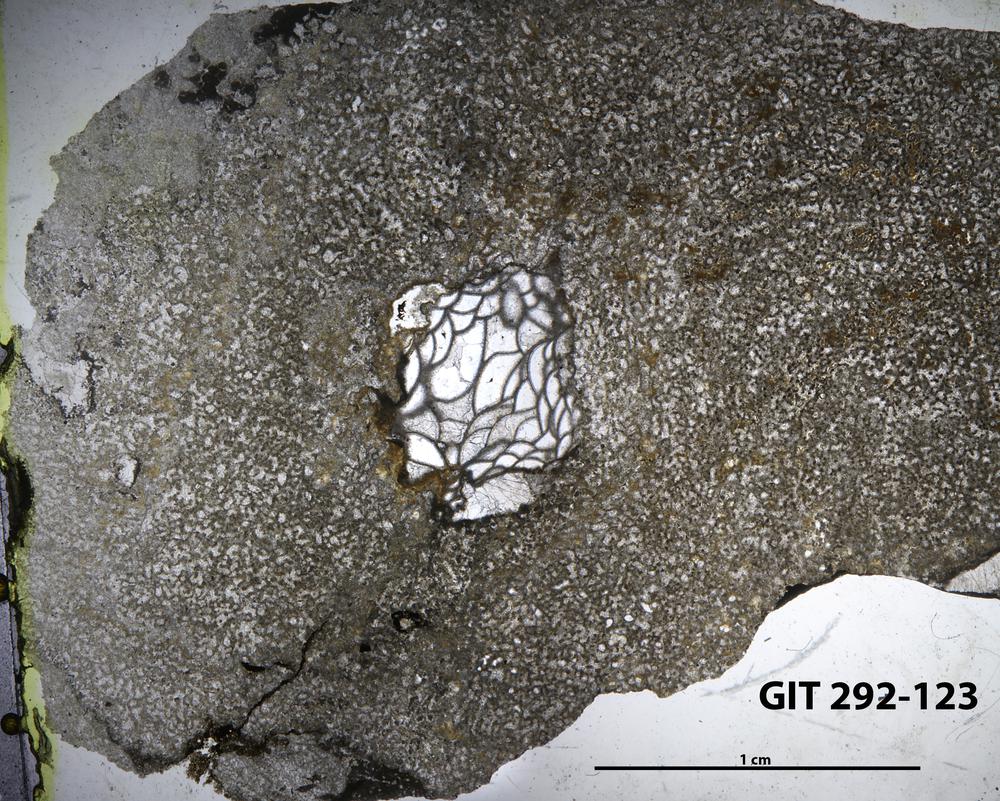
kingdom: Animalia
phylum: Porifera
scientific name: Porifera
